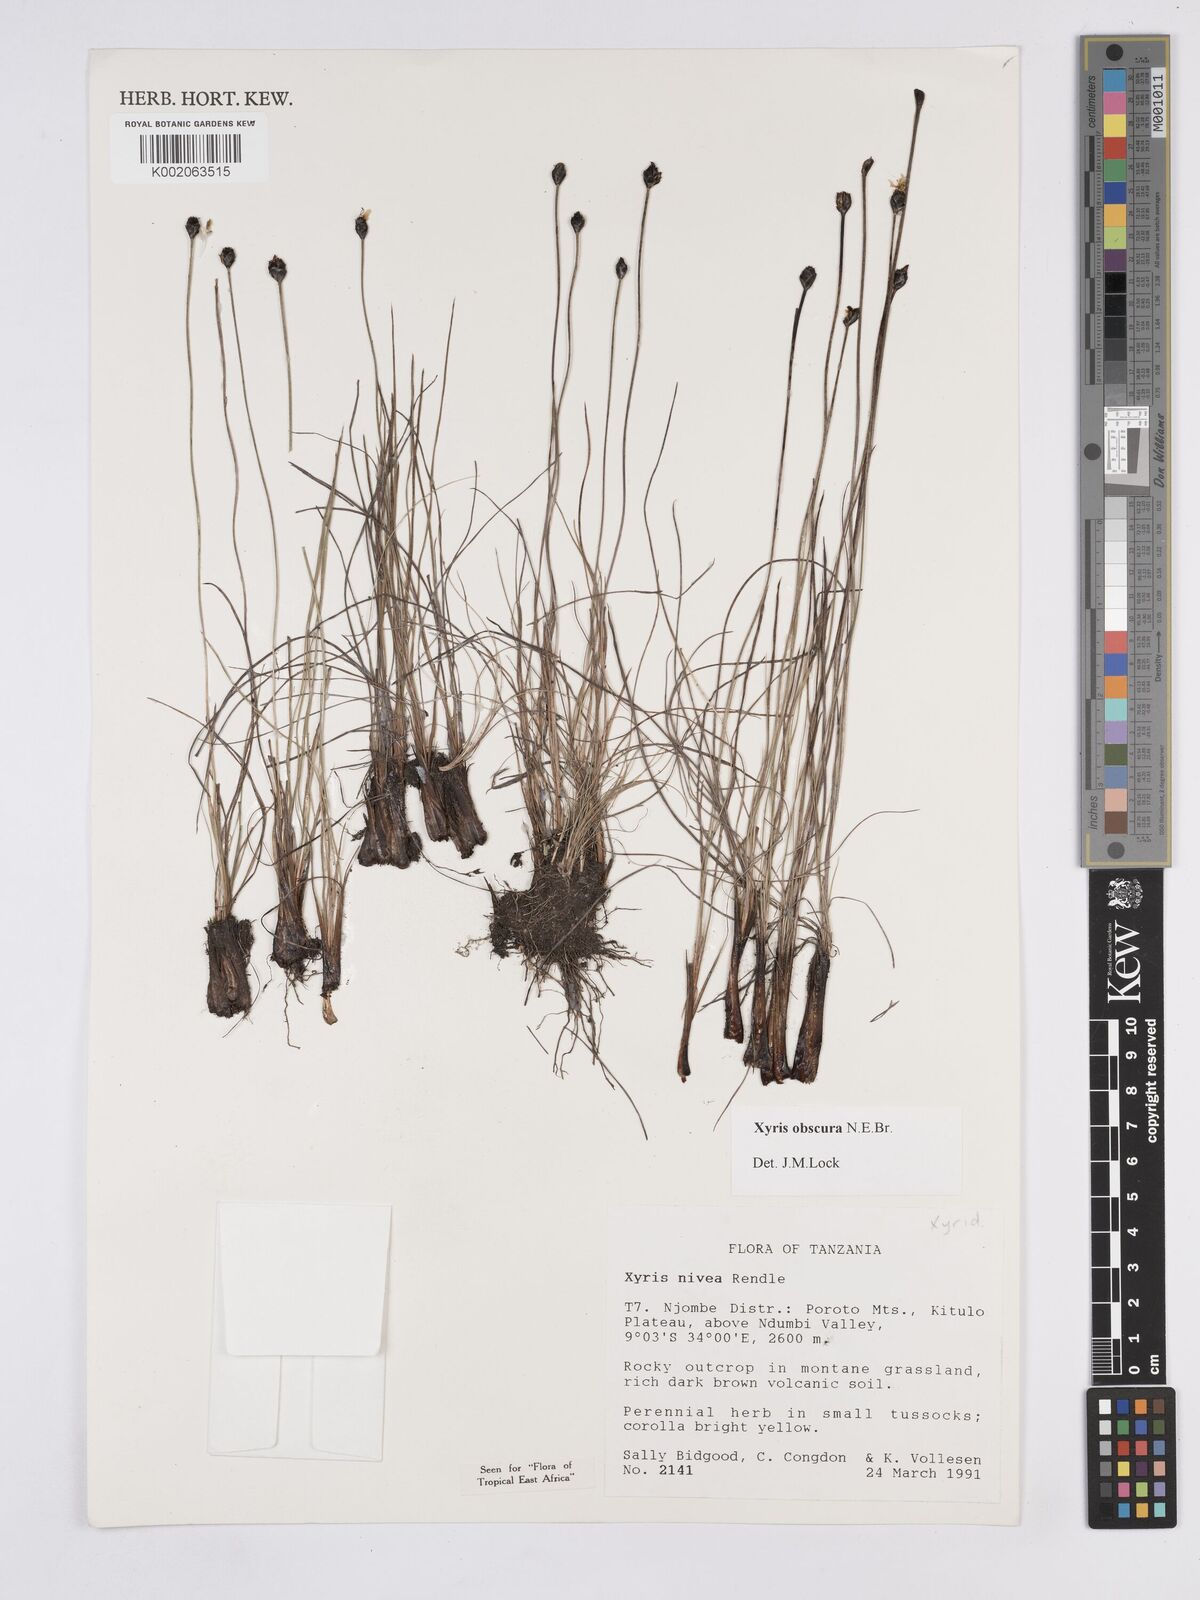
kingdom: Plantae
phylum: Tracheophyta
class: Liliopsida
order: Poales
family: Xyridaceae
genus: Xyris
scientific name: Xyris obscura
